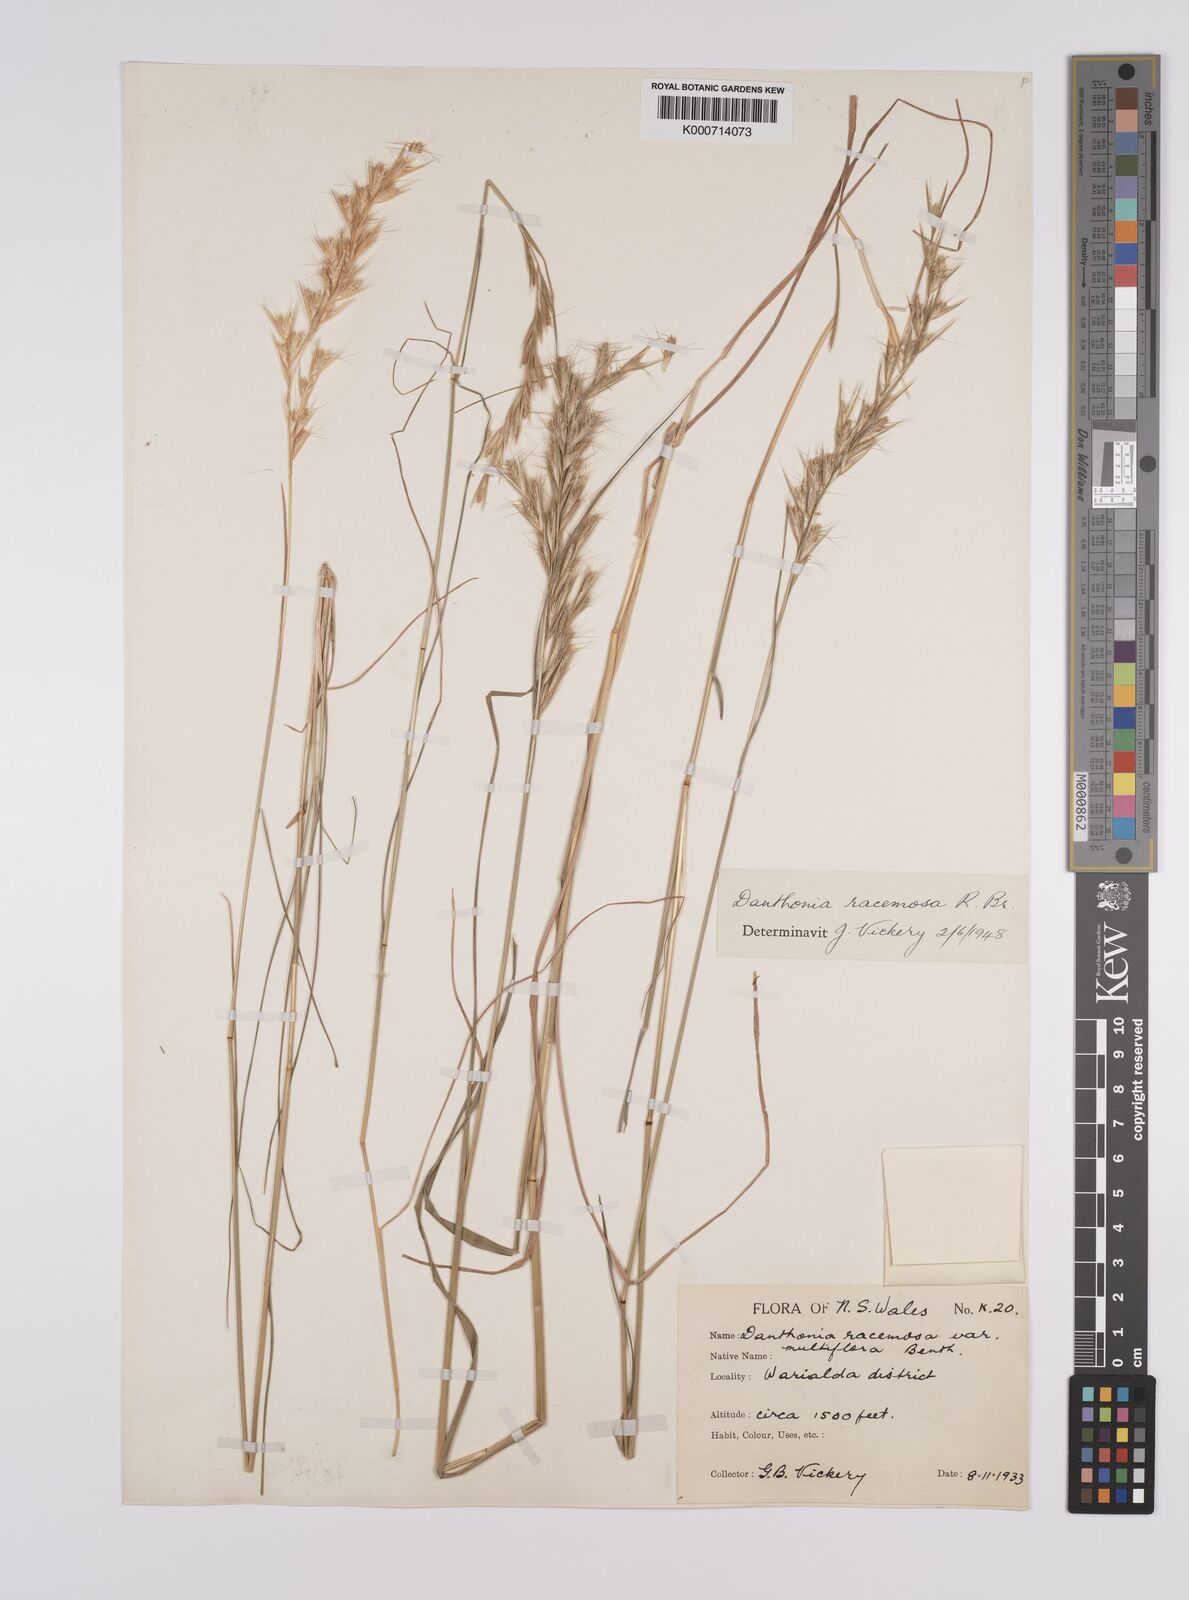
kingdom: Plantae
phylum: Tracheophyta
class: Liliopsida
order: Poales
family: Poaceae
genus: Rytidosperma
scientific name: Rytidosperma racemosum
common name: Wallaby-grass
